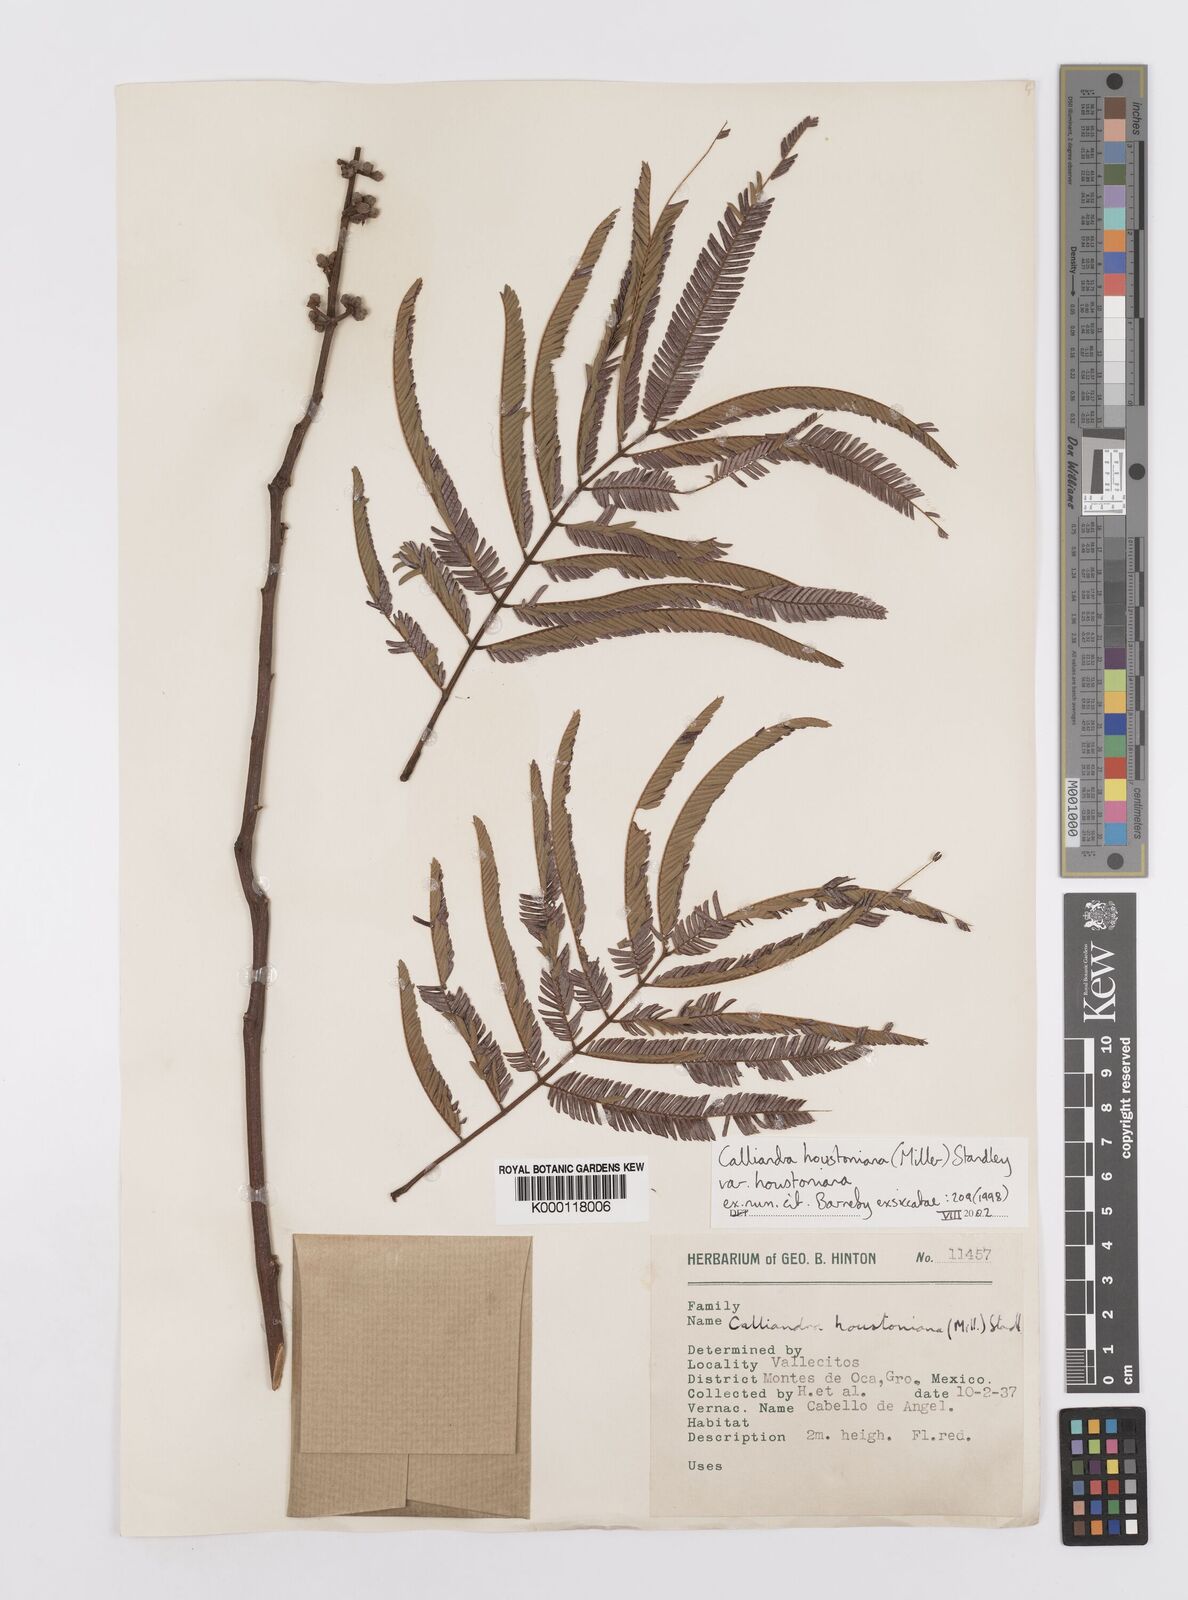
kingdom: Plantae
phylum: Tracheophyta
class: Magnoliopsida
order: Fabales
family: Fabaceae
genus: Calliandra
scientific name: Calliandra houstoniana
